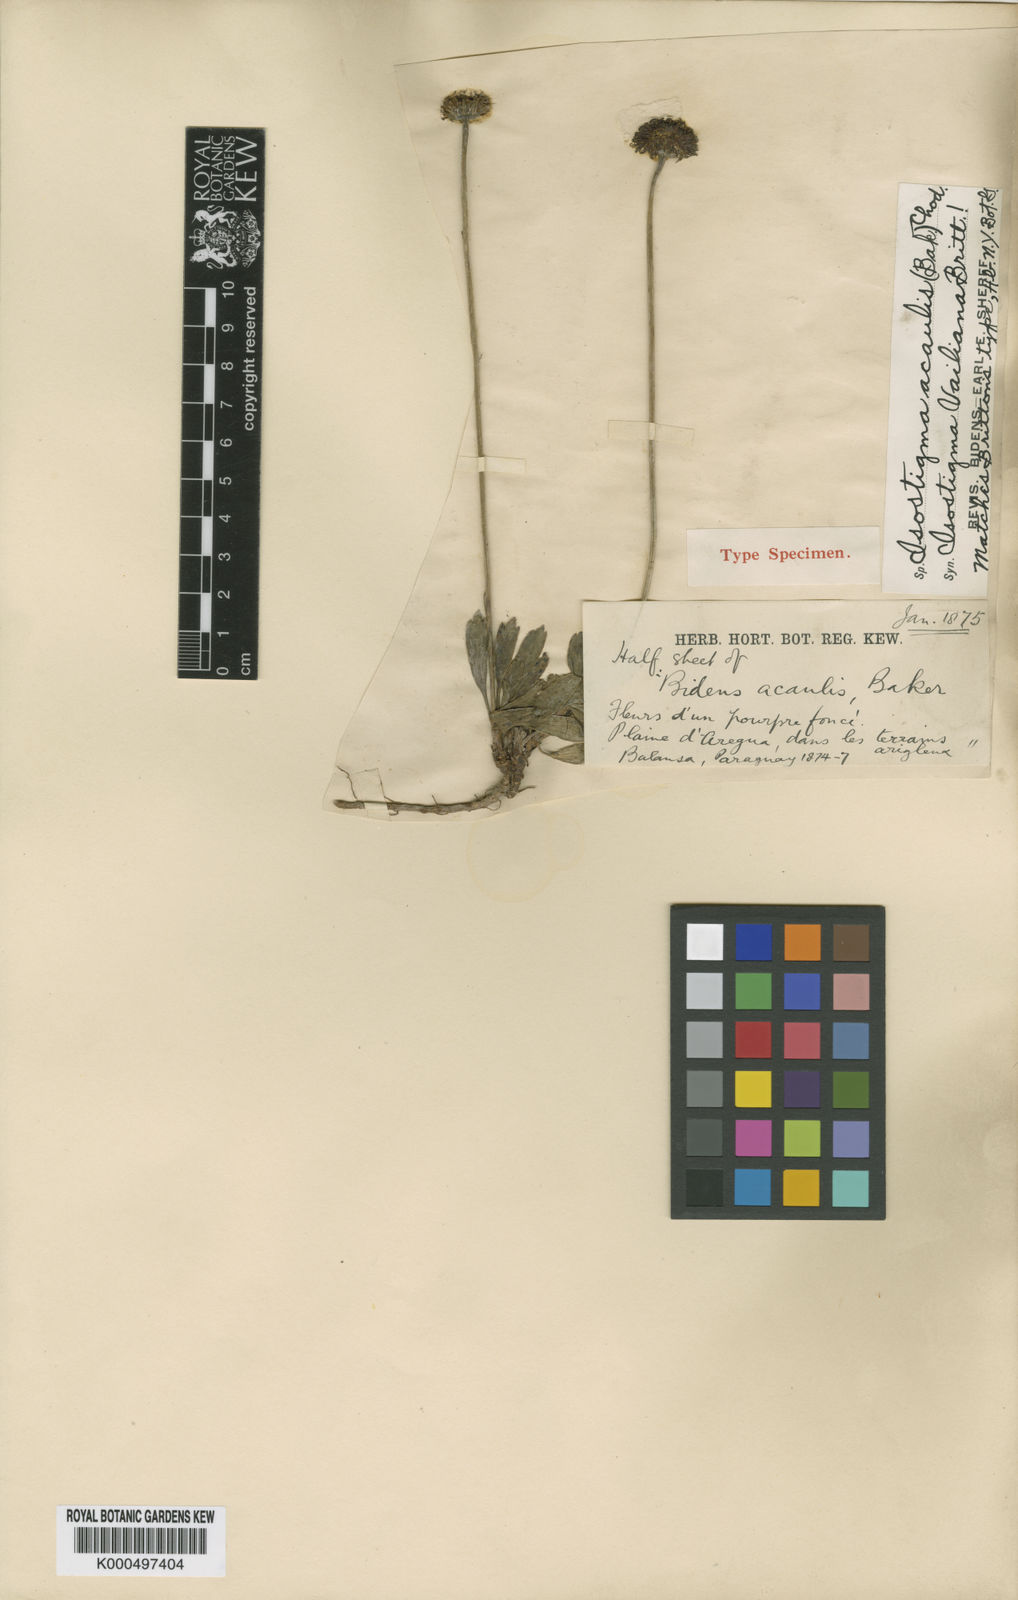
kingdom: Plantae
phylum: Tracheophyta
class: Magnoliopsida
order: Asterales
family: Asteraceae
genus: Isostigma
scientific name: Isostigma acaule
